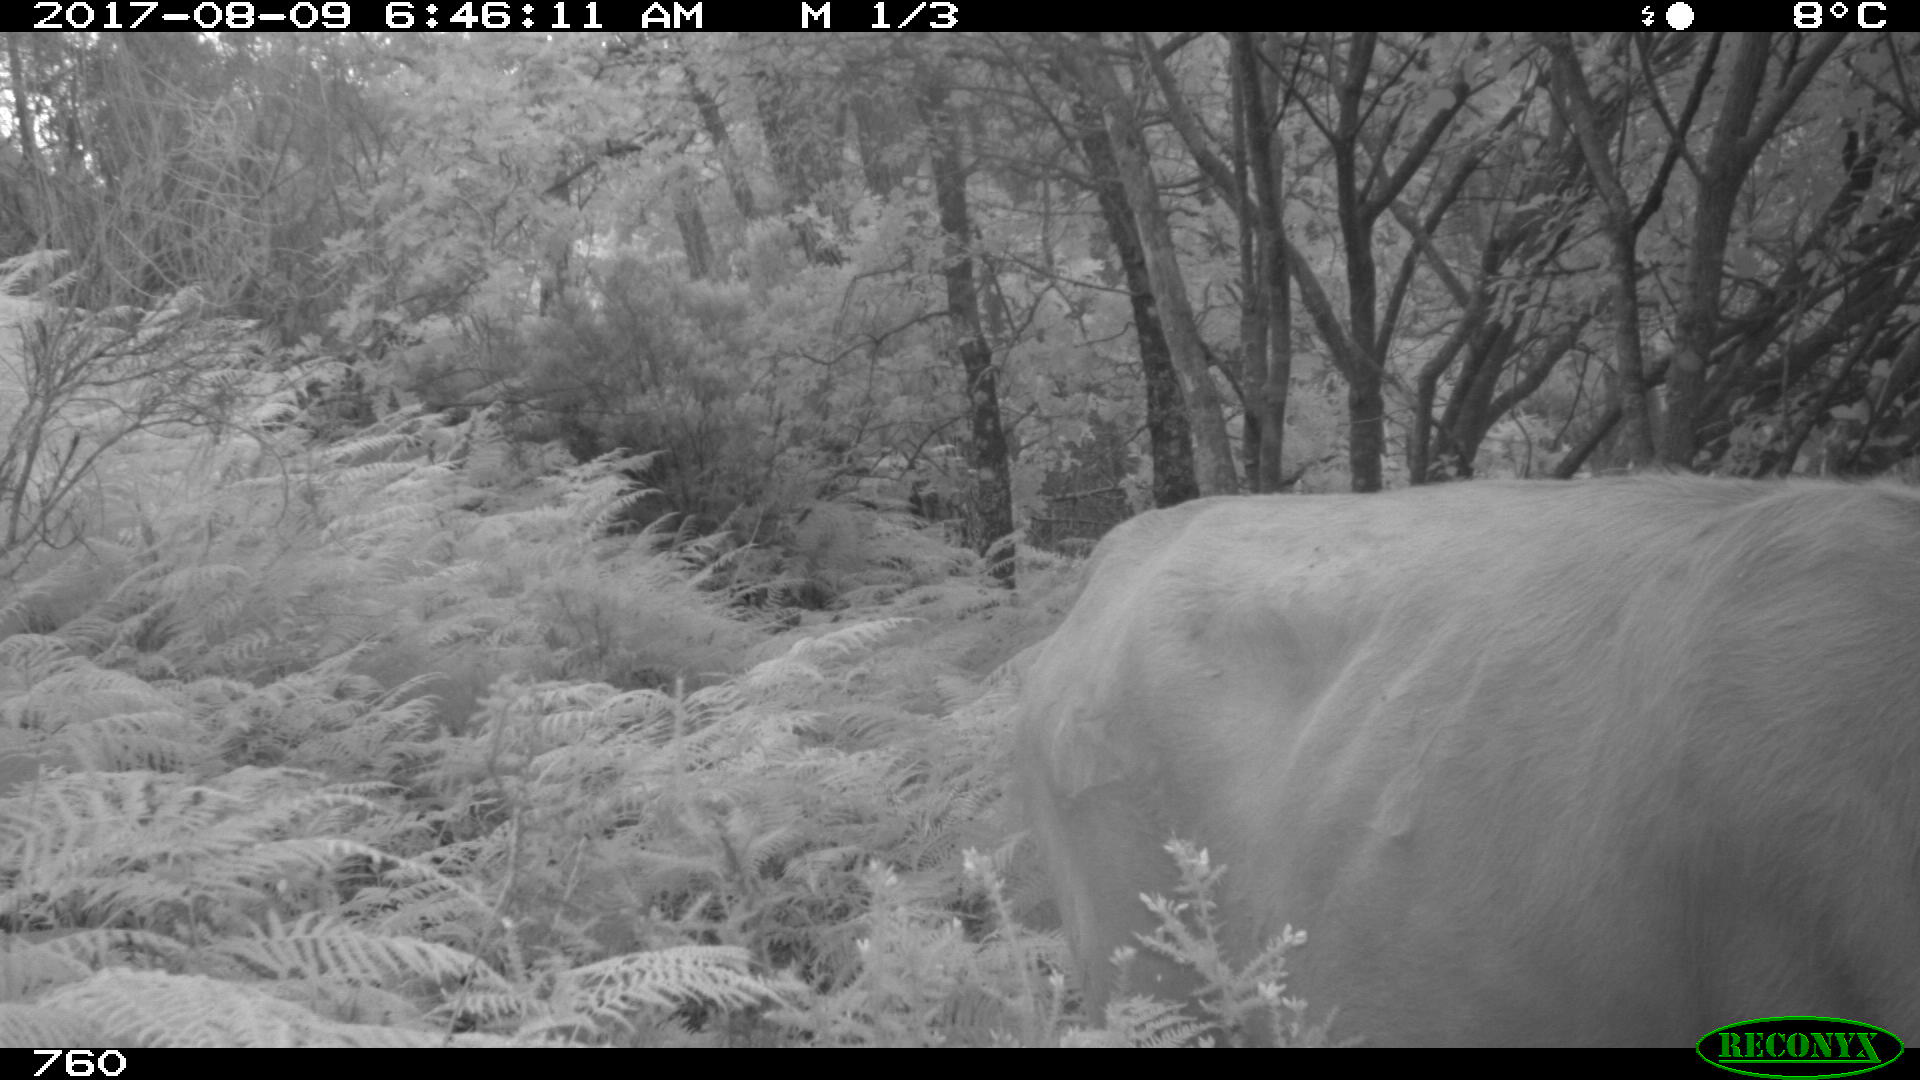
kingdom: Animalia
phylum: Chordata
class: Mammalia
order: Artiodactyla
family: Bovidae
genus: Bos
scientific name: Bos taurus
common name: Domesticated cattle
